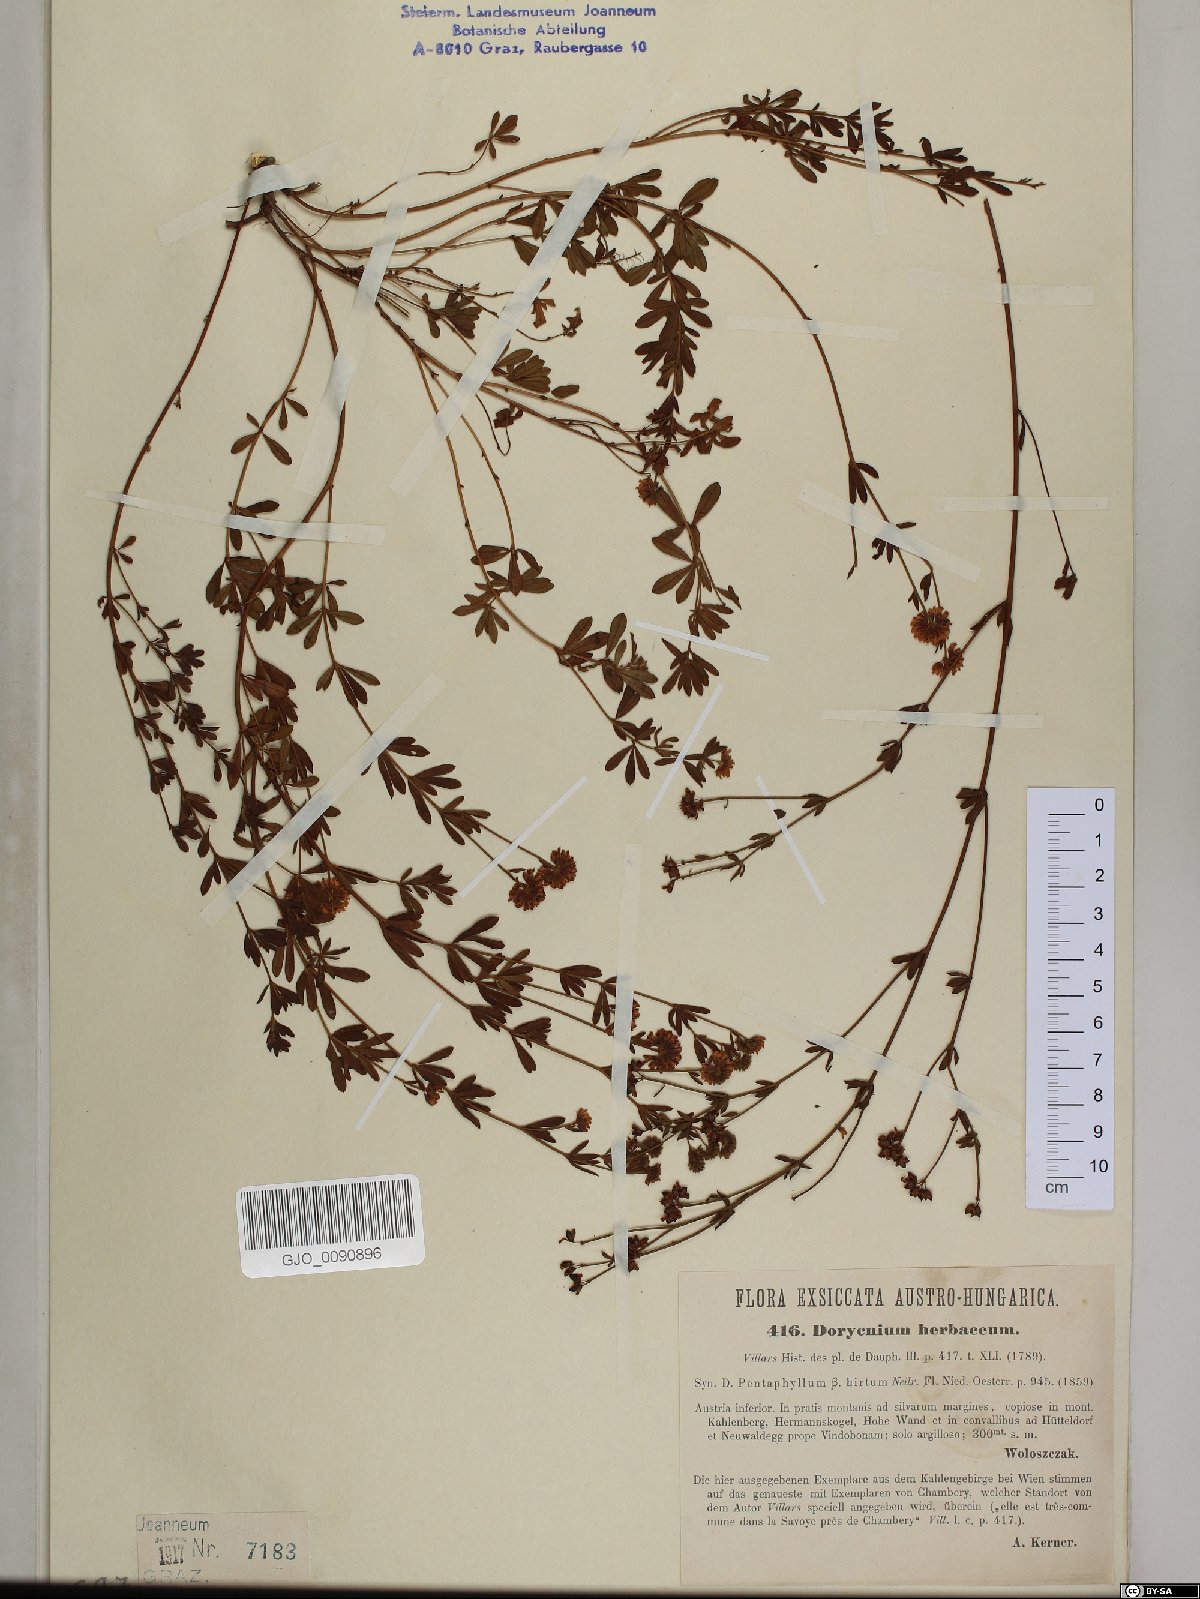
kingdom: Plantae
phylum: Tracheophyta
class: Magnoliopsida
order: Fabales
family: Fabaceae
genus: Lotus
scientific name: Lotus herbaceus
